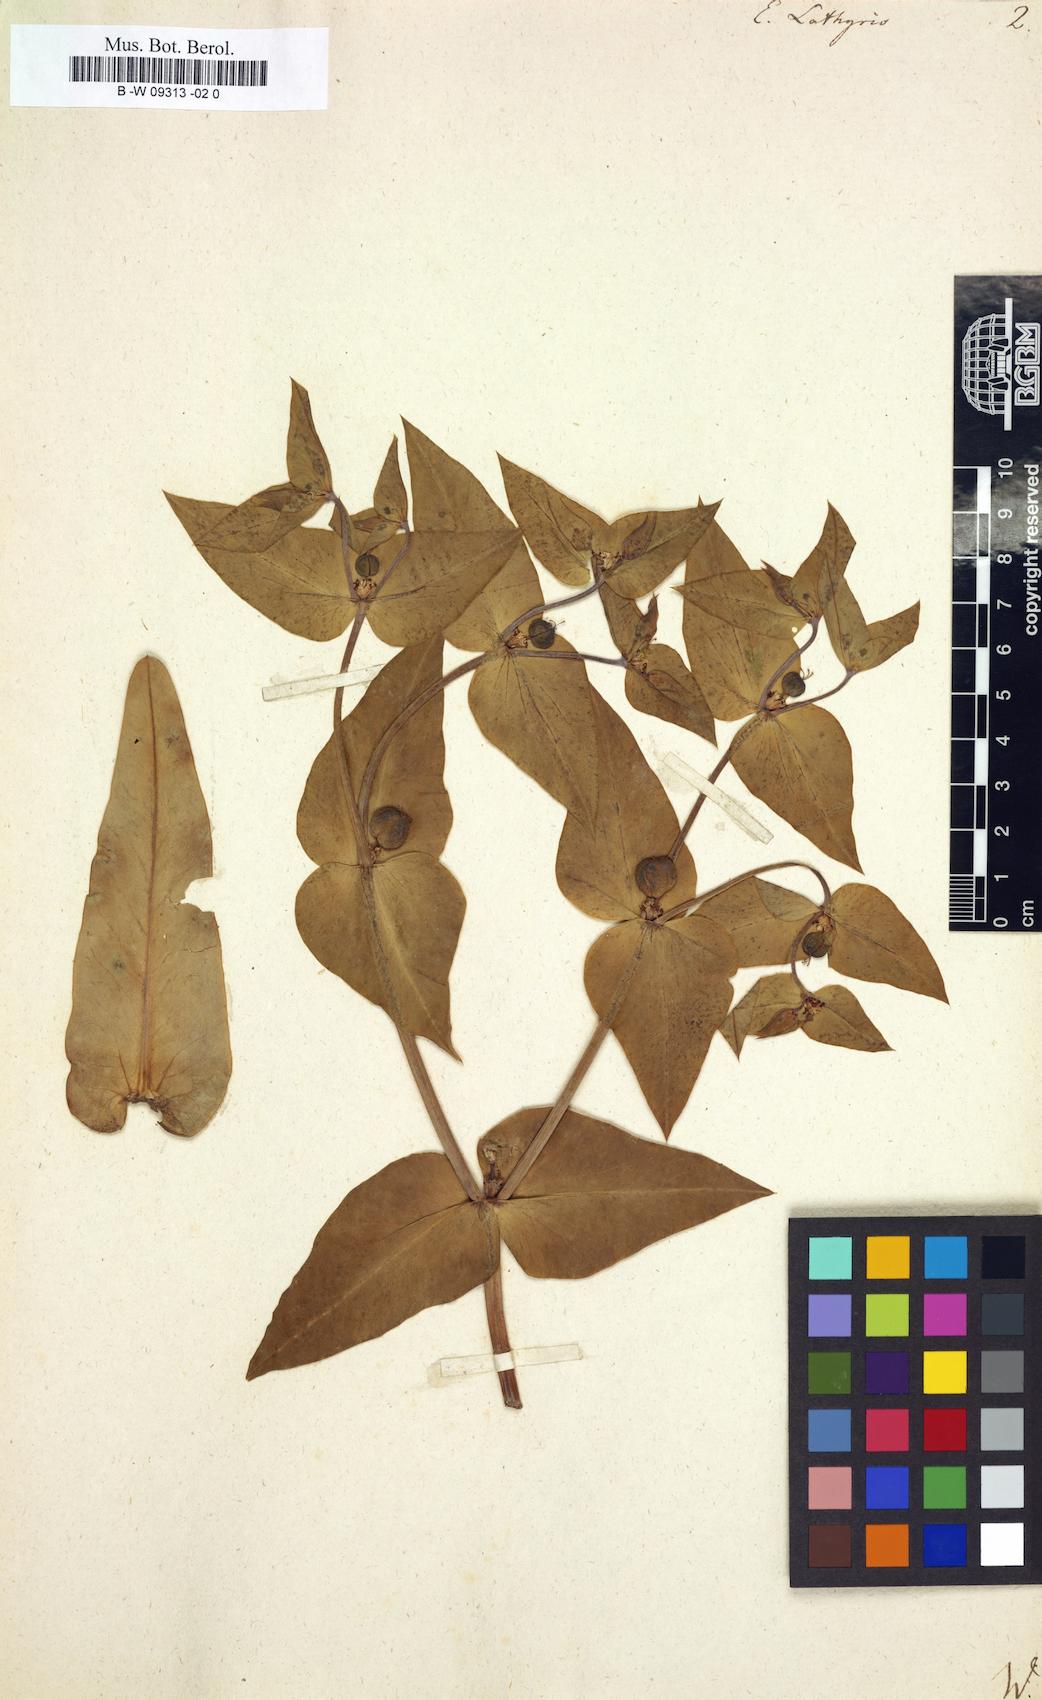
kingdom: Plantae
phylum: Tracheophyta
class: Magnoliopsida
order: Malpighiales
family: Euphorbiaceae
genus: Euphorbia
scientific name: Euphorbia lathyris
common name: Caper spurge
